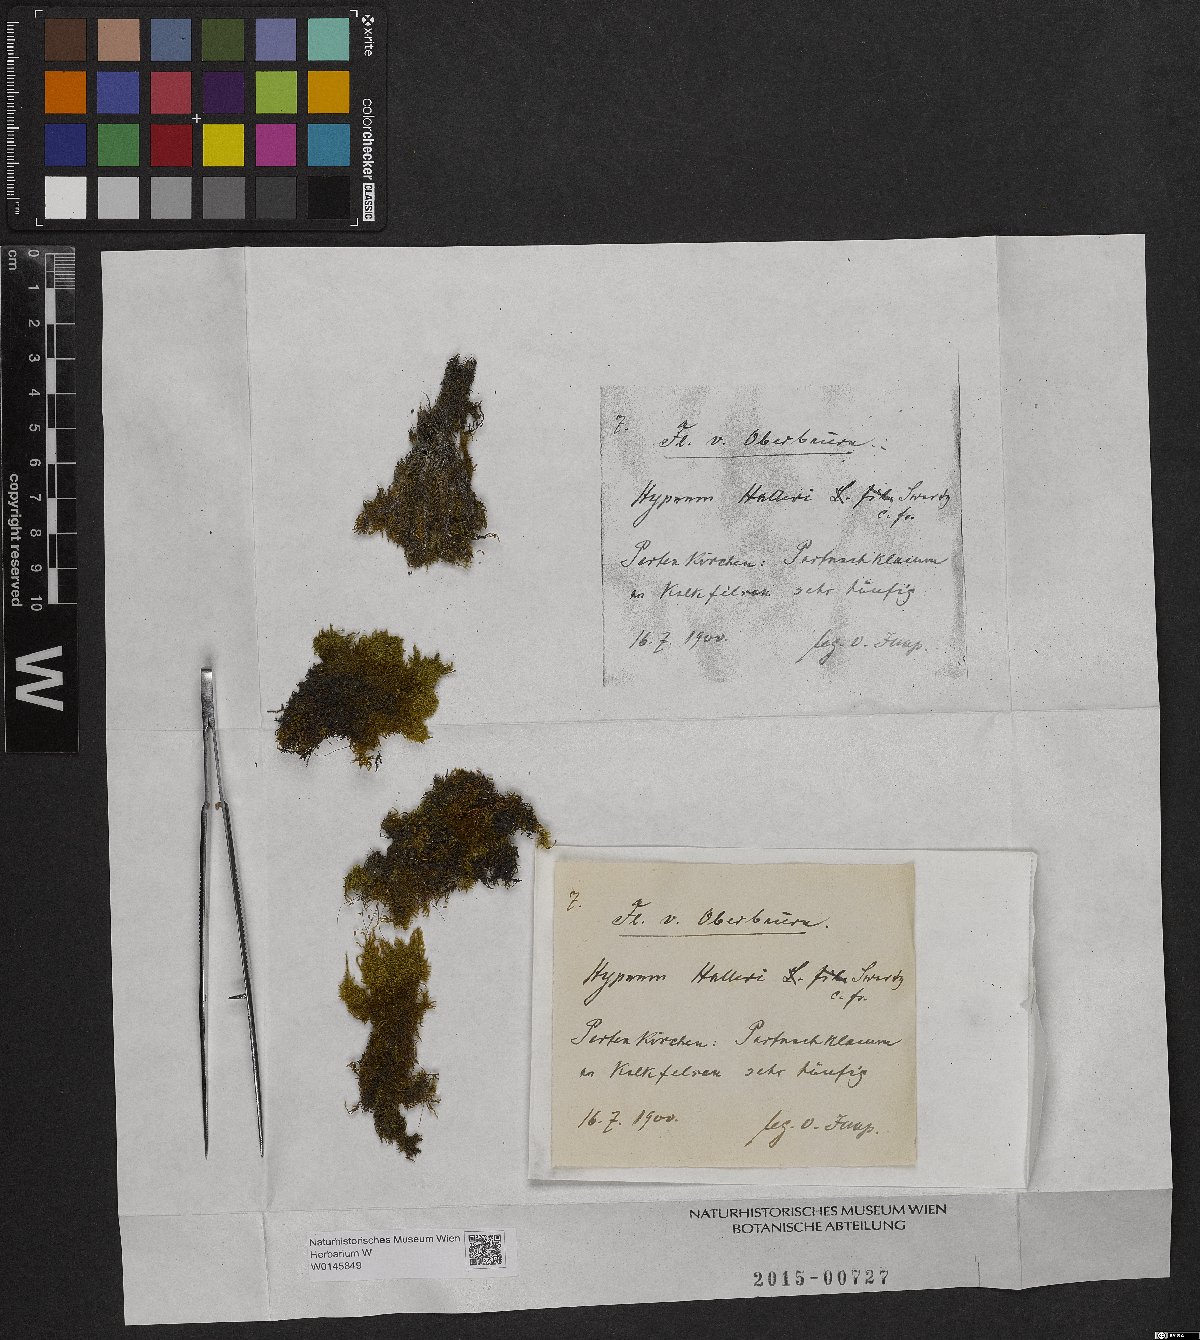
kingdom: Plantae
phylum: Bryophyta
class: Bryopsida
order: Hypnales
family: Amblystegiaceae
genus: Campylophyllum
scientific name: Campylophyllum halleri
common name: Haller's fine wet moss
